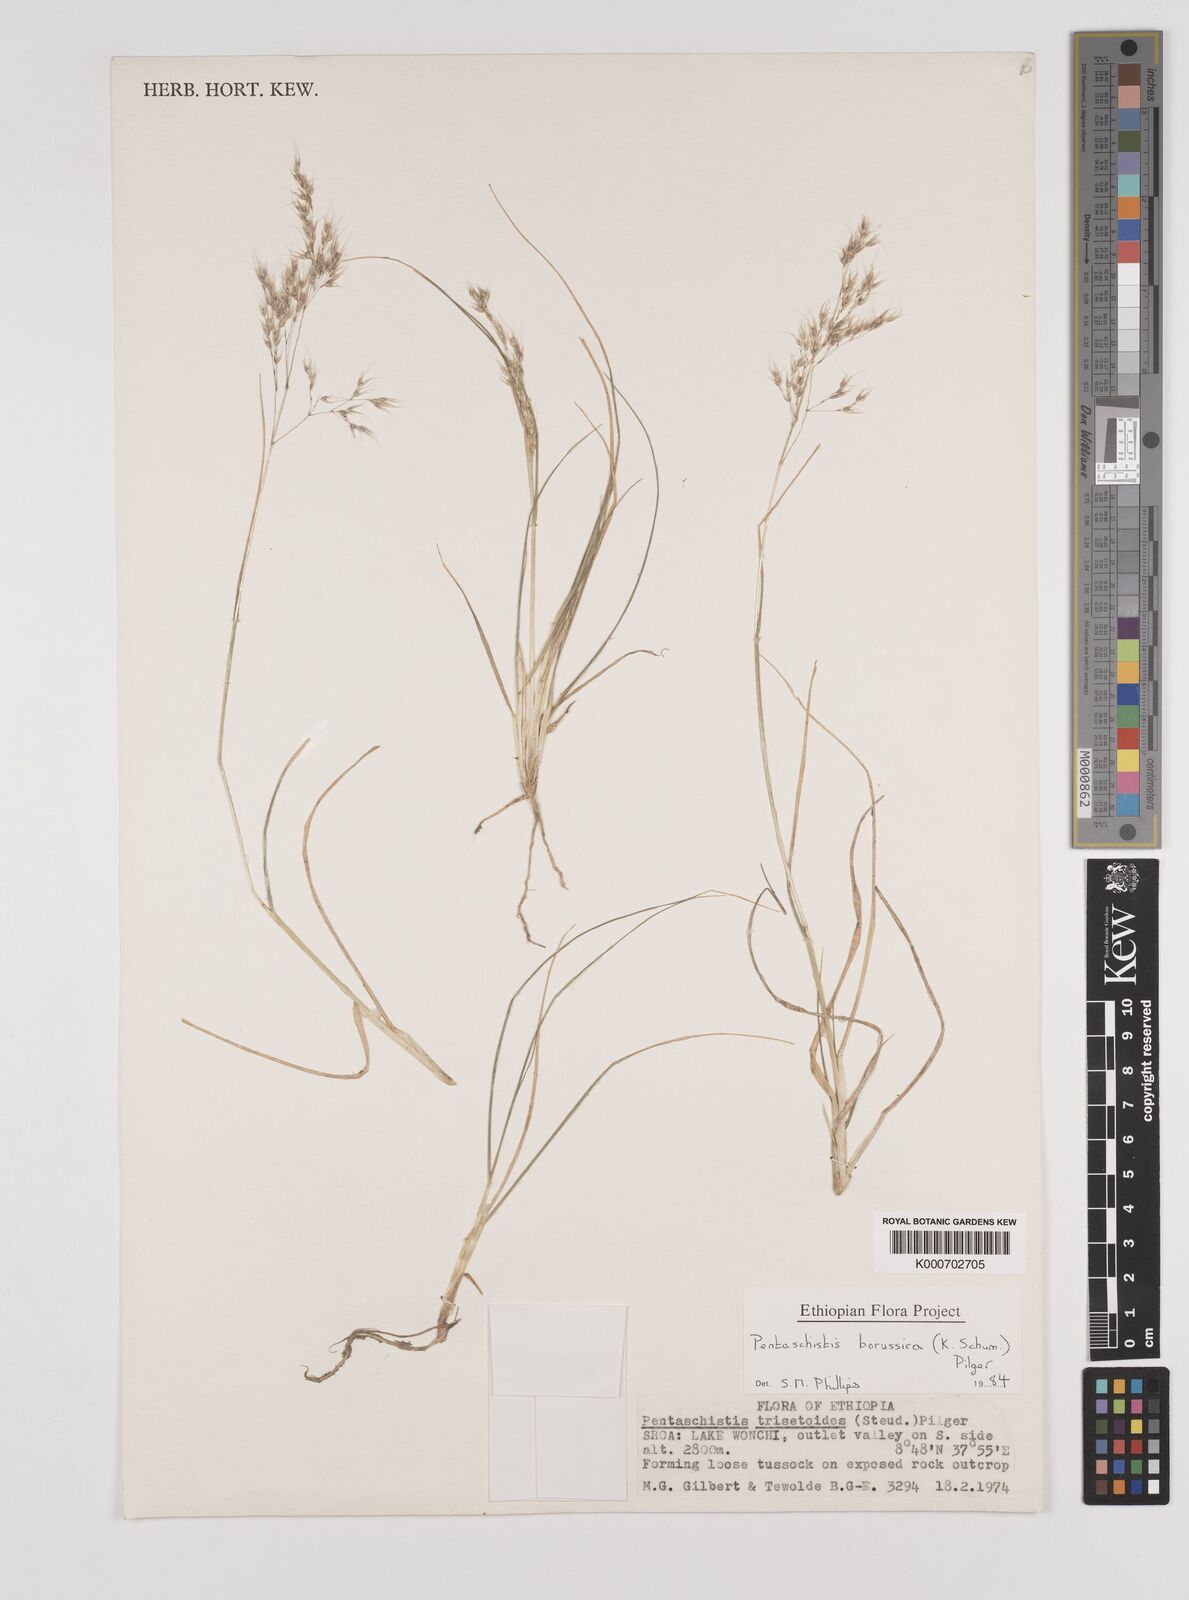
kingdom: Plantae
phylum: Tracheophyta
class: Liliopsida
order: Poales
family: Poaceae
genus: Pentameris
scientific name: Pentameris borussica
